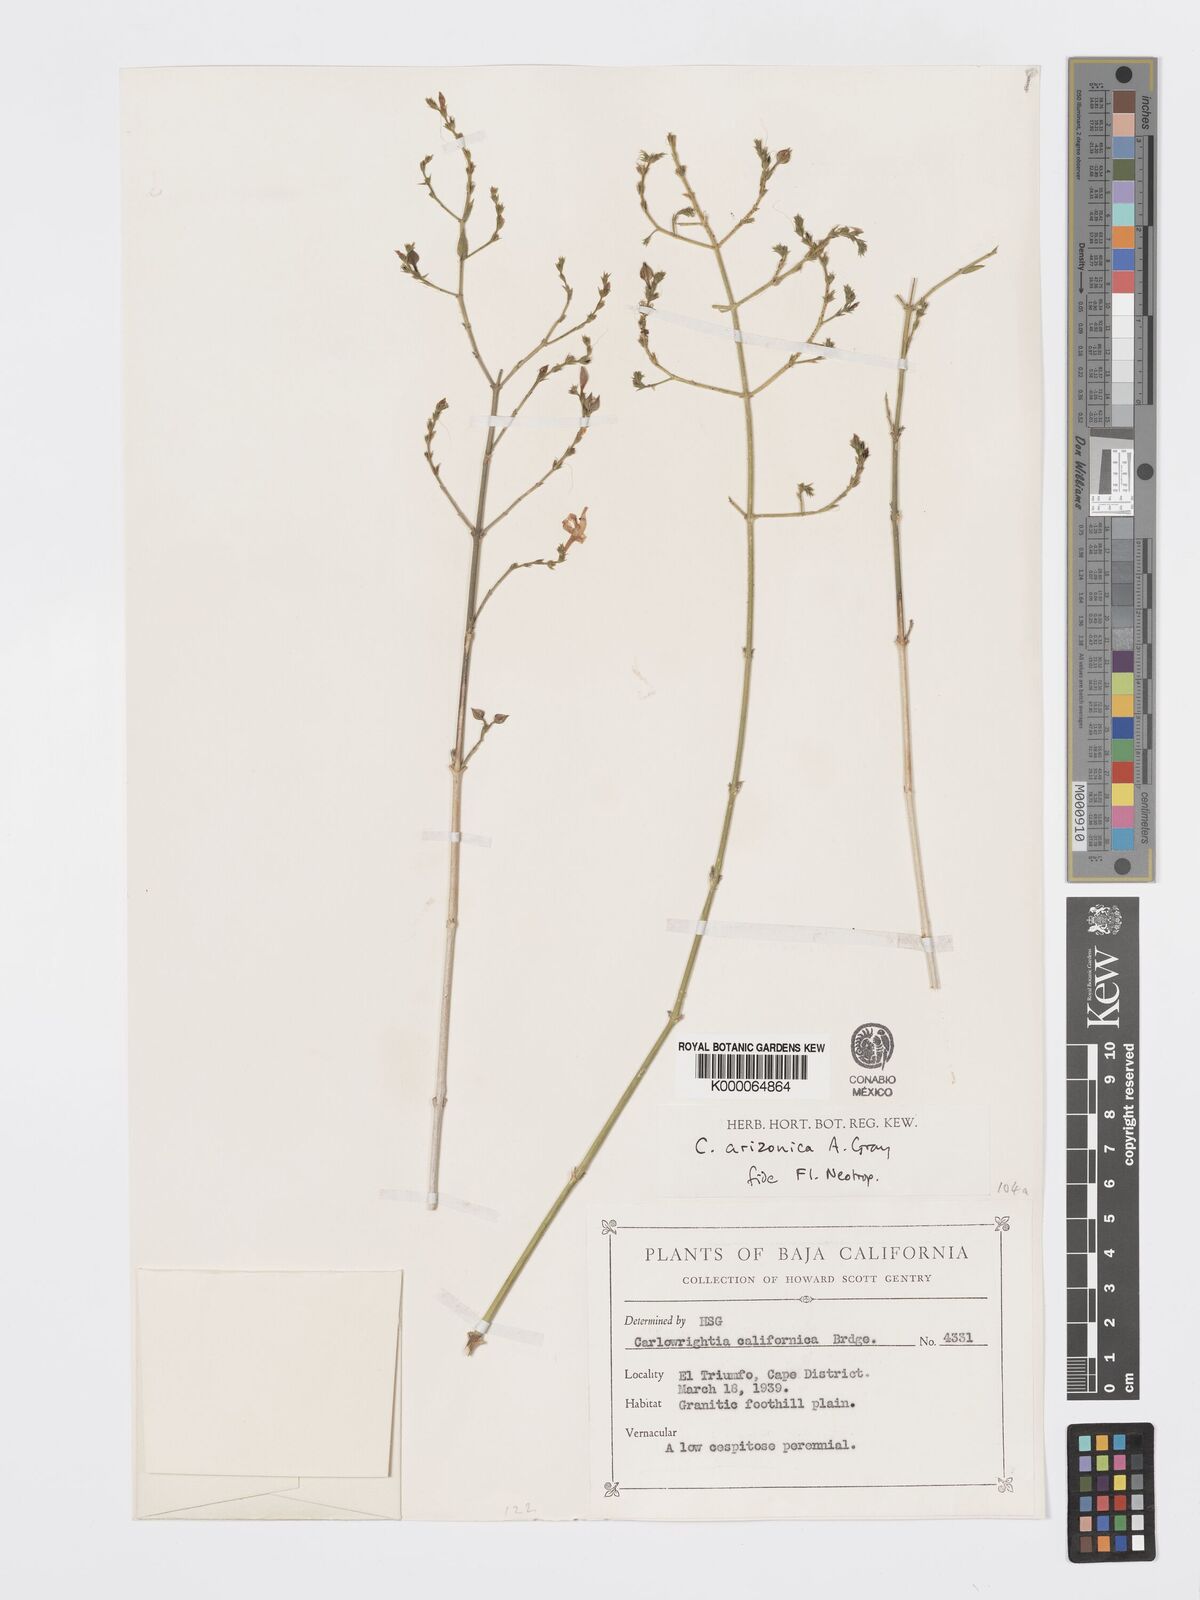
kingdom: Plantae
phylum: Tracheophyta
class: Magnoliopsida
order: Lamiales
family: Acanthaceae
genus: Carlowrightia
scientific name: Carlowrightia arizonica
